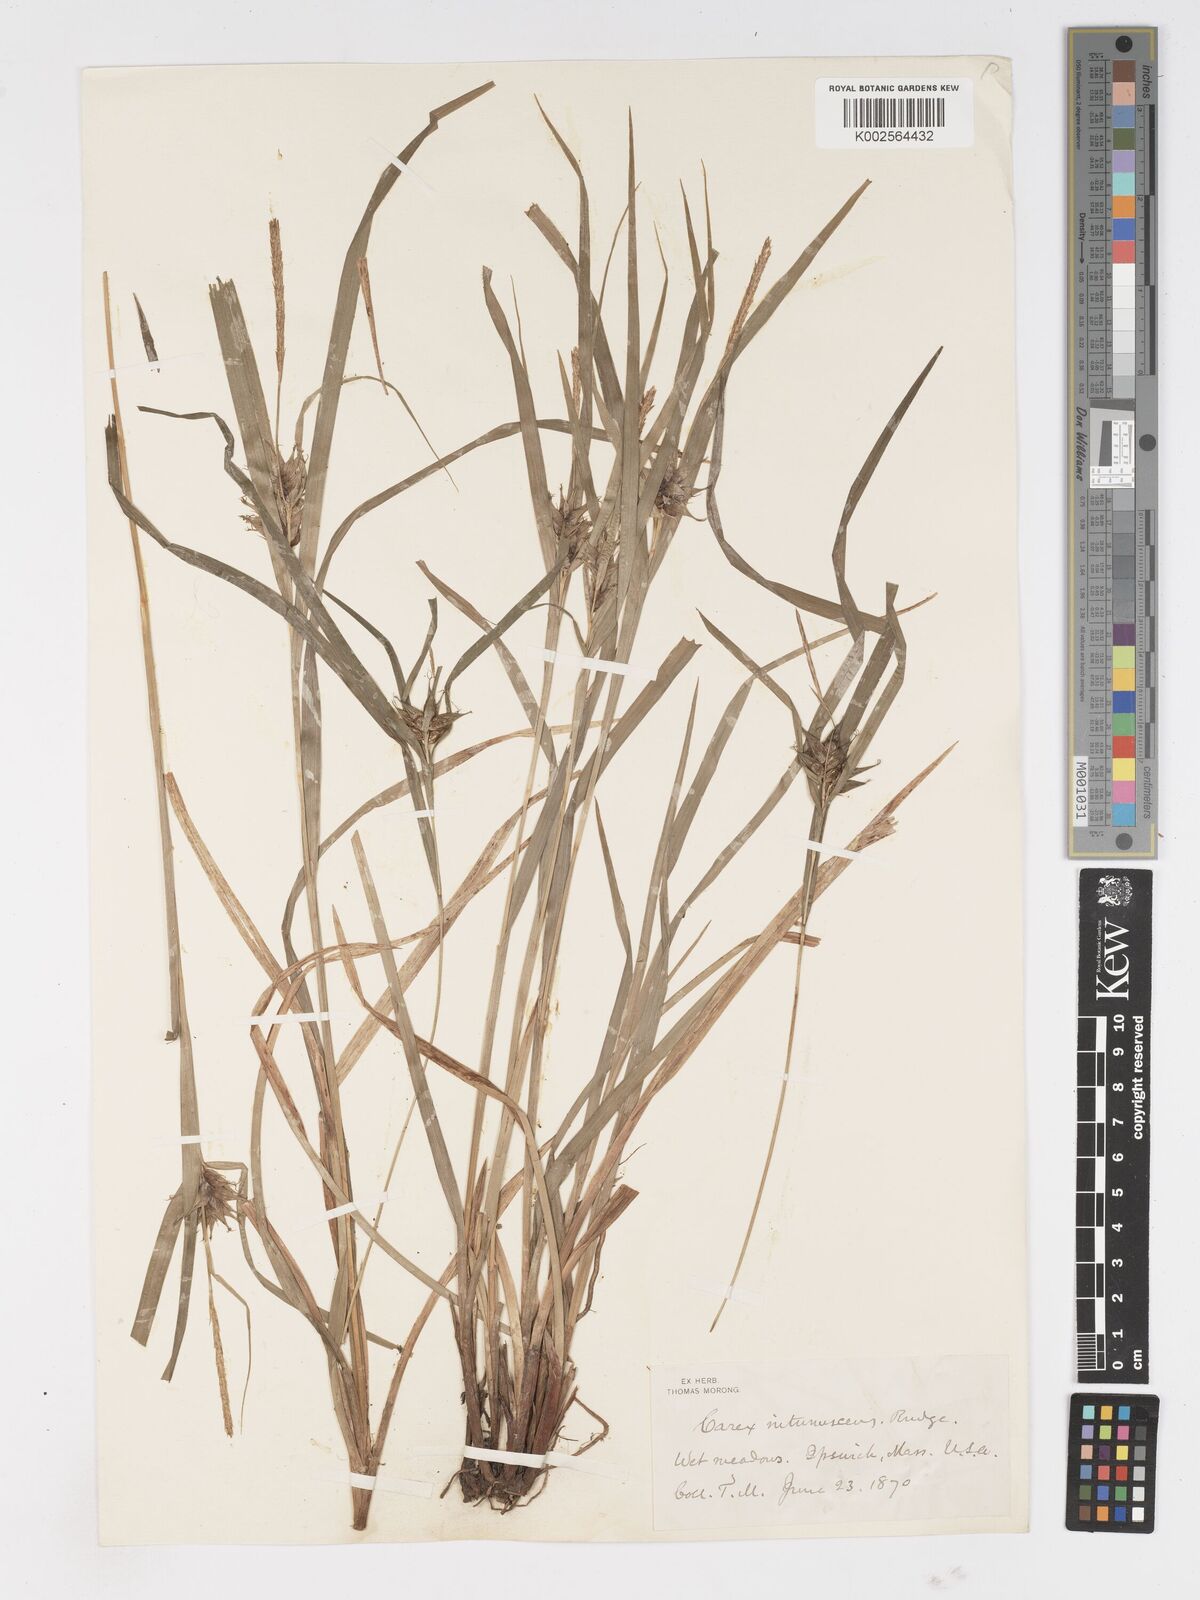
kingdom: Plantae
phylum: Tracheophyta
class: Liliopsida
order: Poales
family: Cyperaceae
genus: Carex
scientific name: Carex intumescens
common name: Greater bladder sedge
